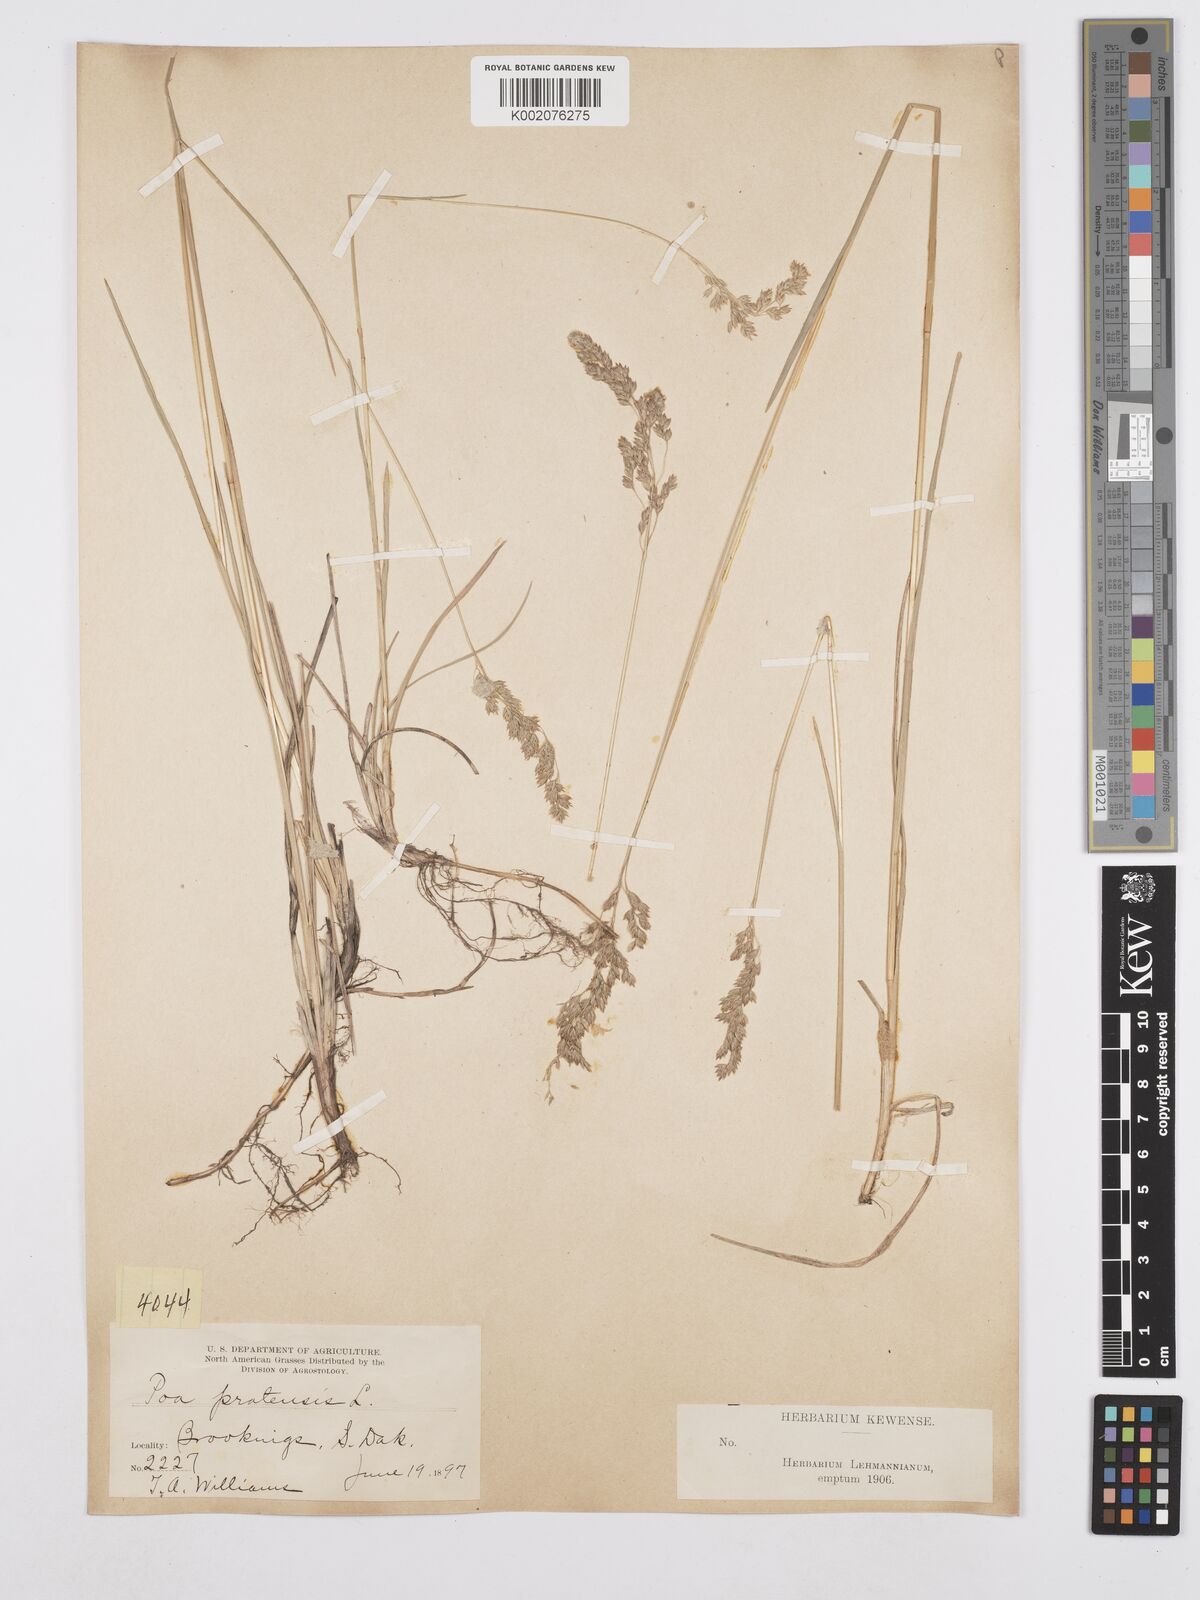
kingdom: Plantae
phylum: Tracheophyta
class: Liliopsida
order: Poales
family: Poaceae
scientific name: Poaceae
